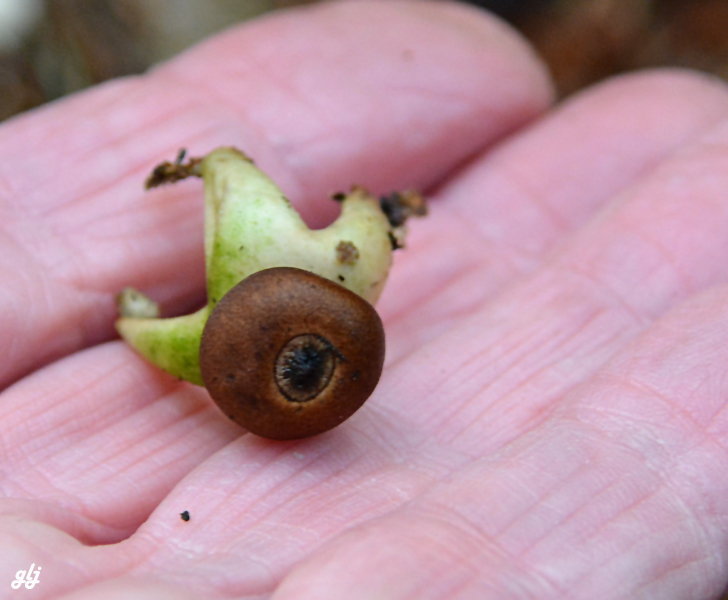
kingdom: Fungi
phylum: Basidiomycota
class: Agaricomycetes
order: Geastrales
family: Geastraceae
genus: Geastrum
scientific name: Geastrum quadrifidum
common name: firfliget stjernebold
